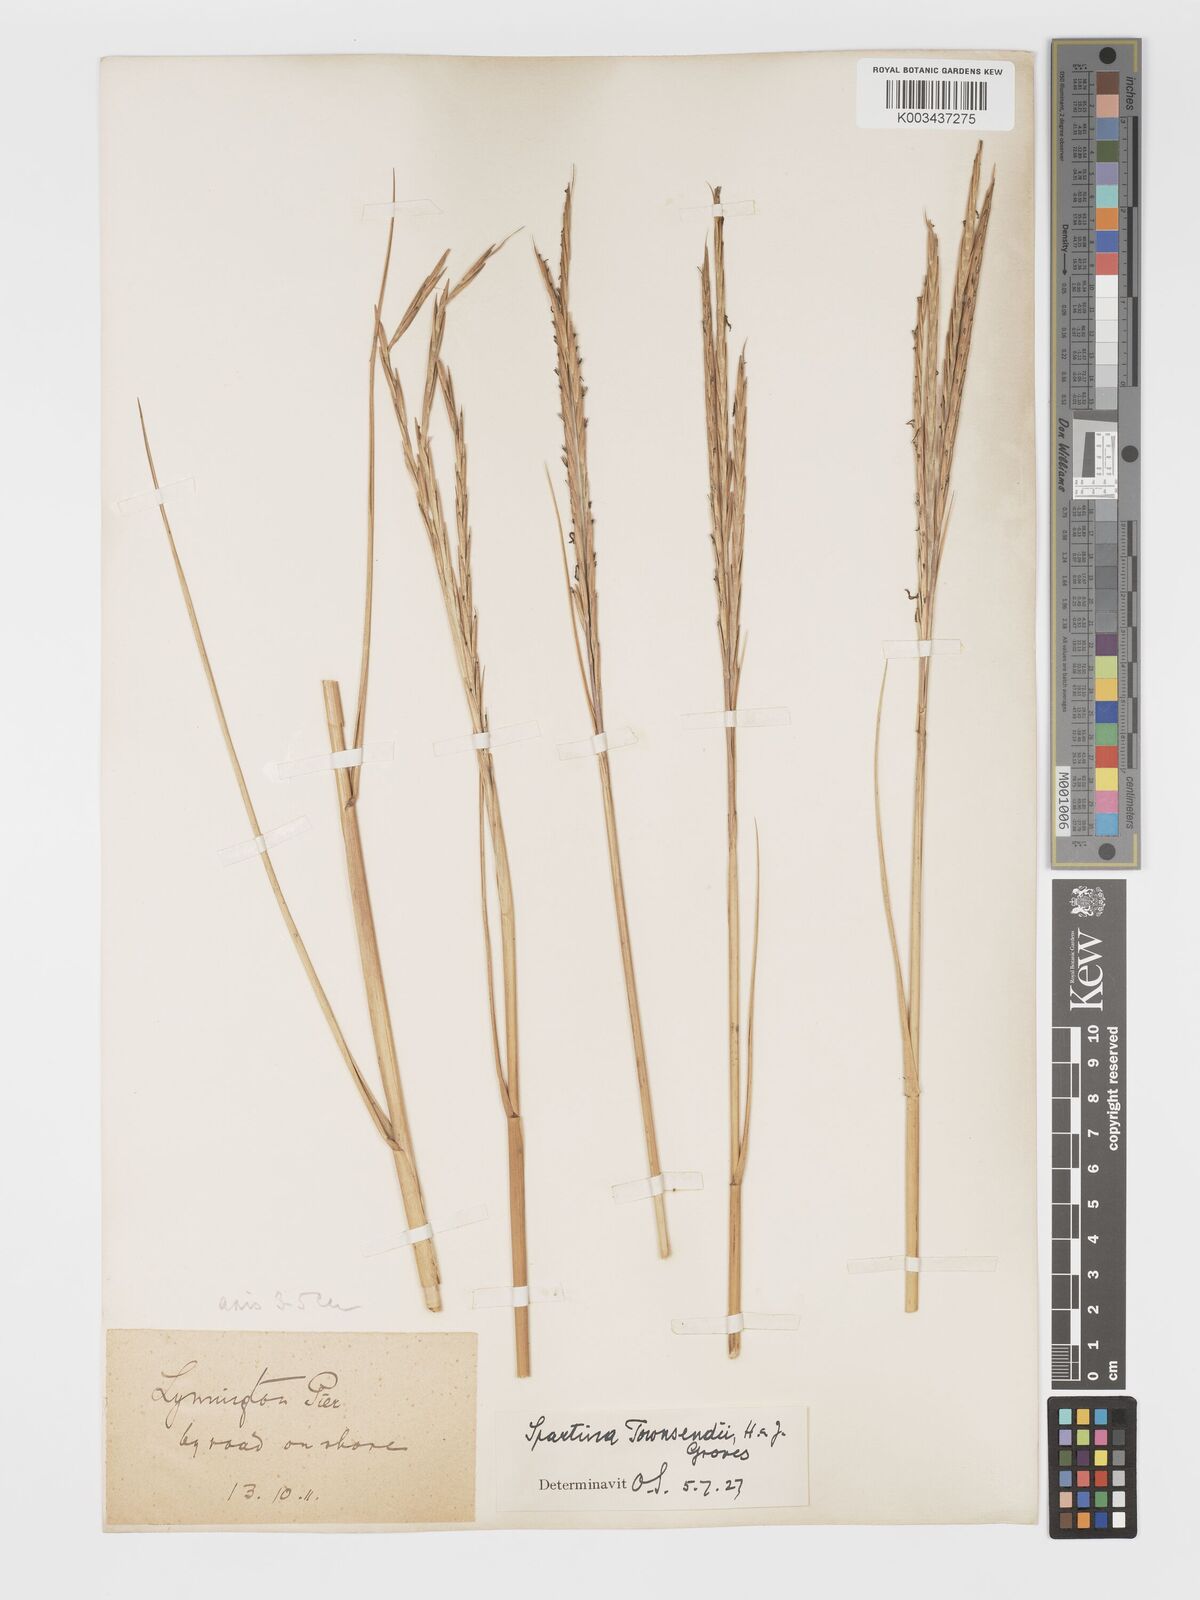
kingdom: Plantae
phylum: Tracheophyta
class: Liliopsida
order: Poales
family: Poaceae
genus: Sporobolus
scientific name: Sporobolus townsendii
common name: Townsend's cordgrass
